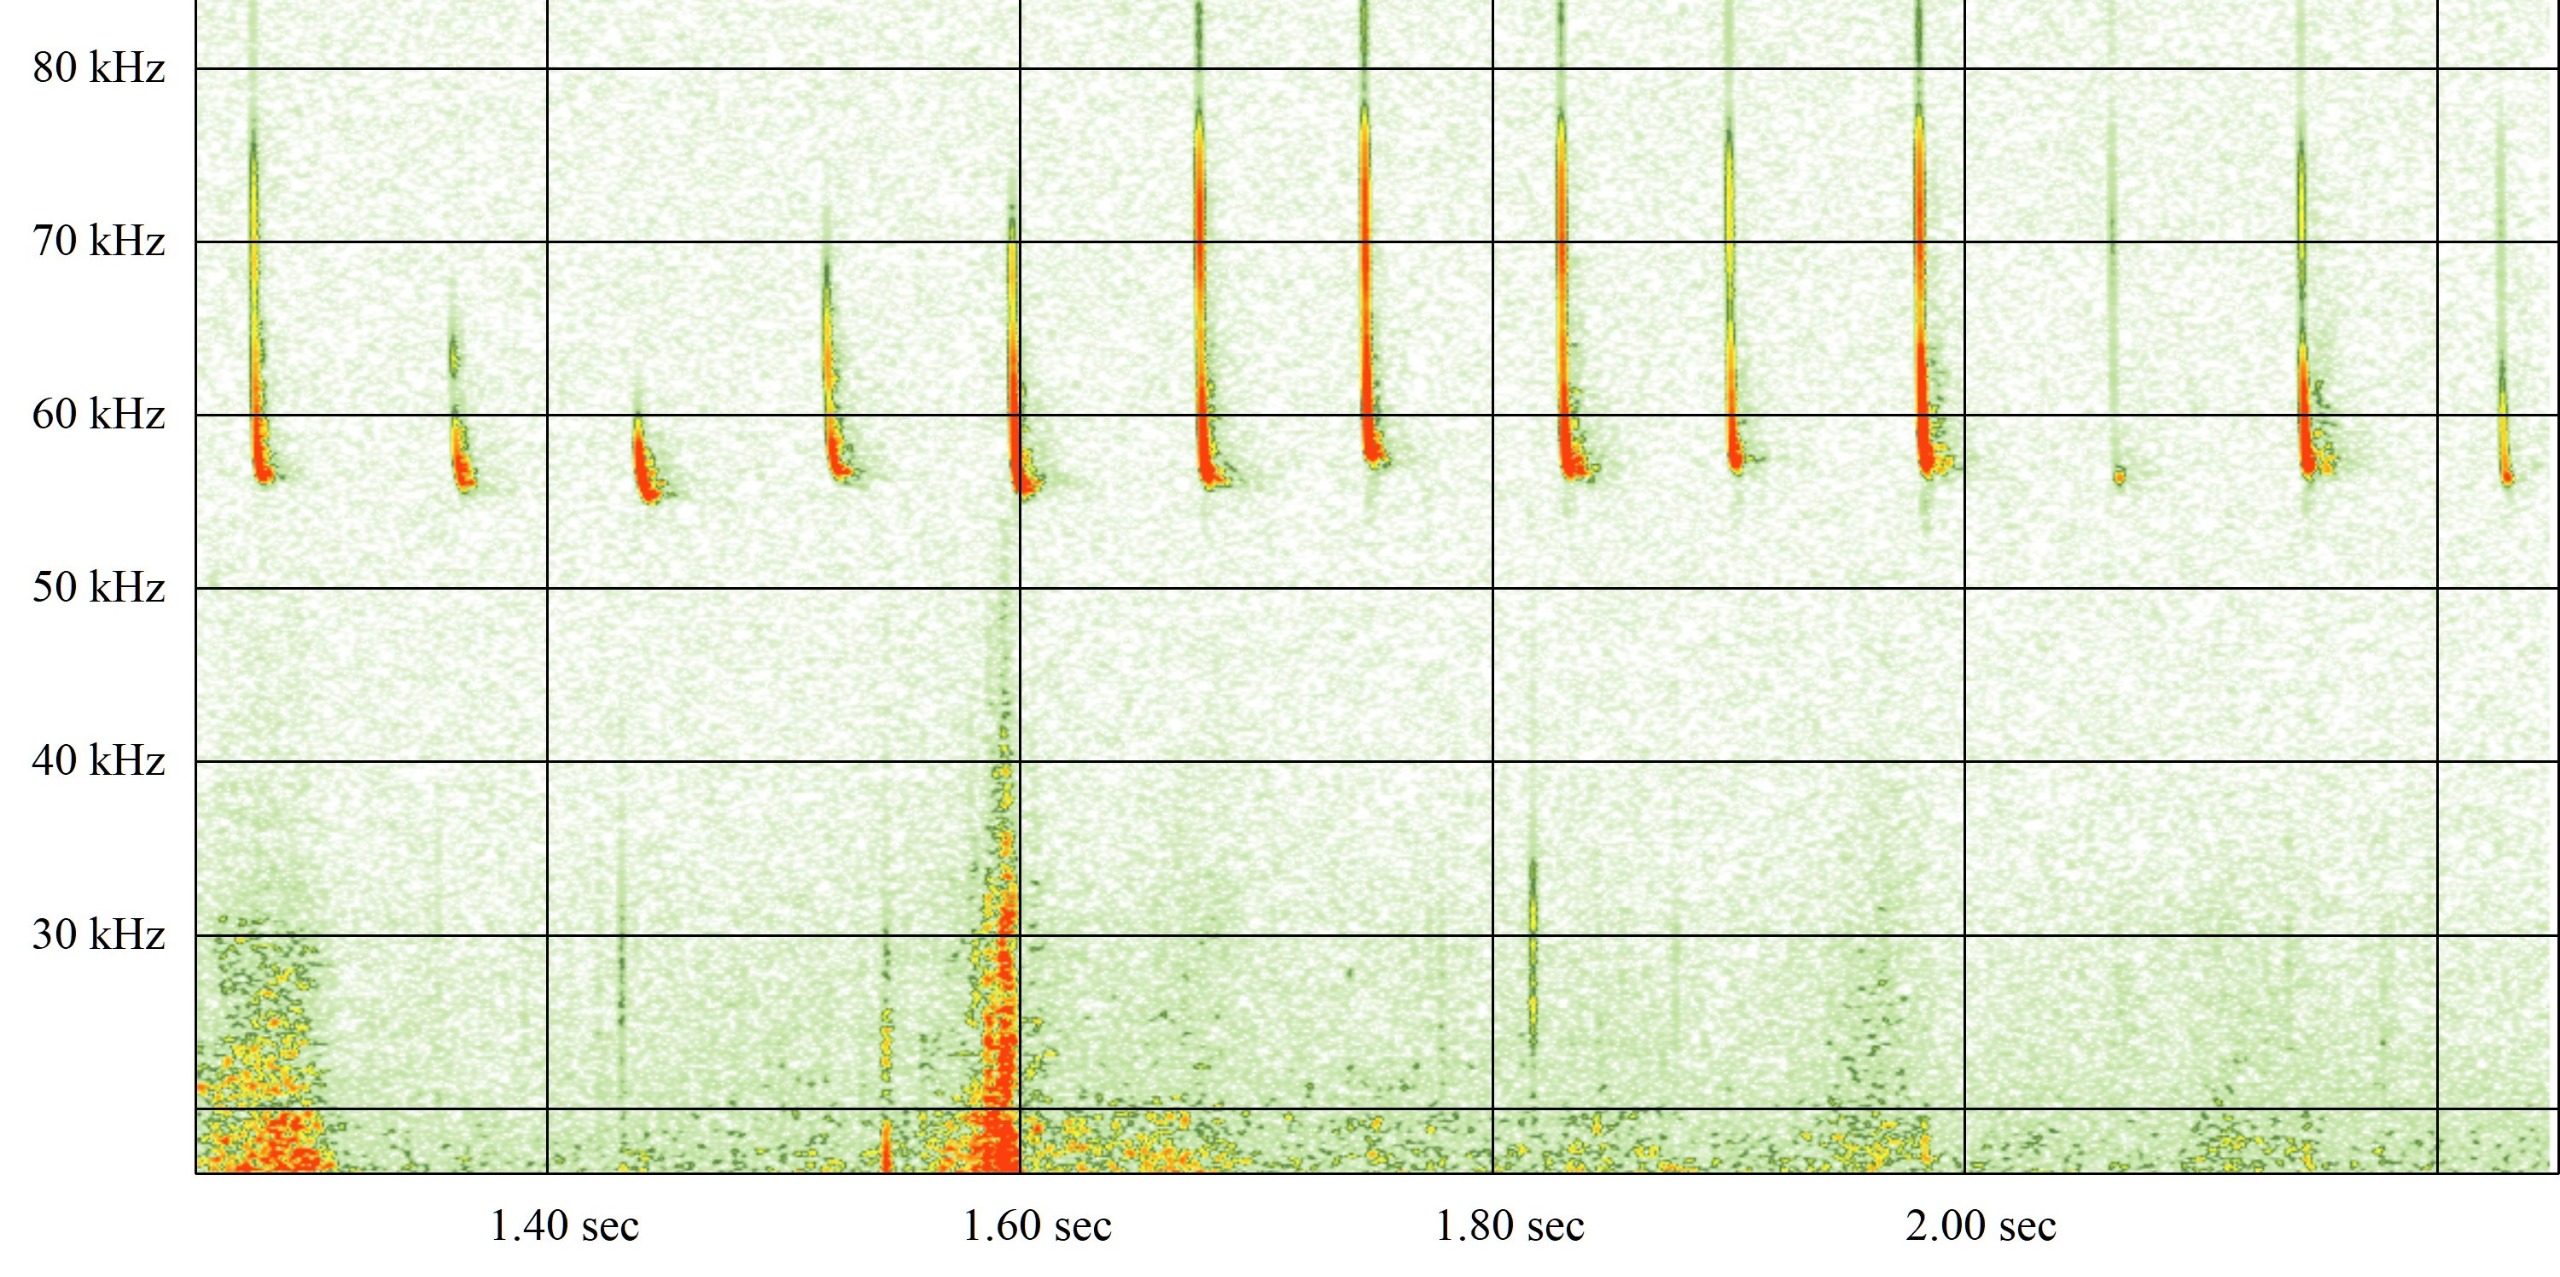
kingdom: Animalia
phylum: Chordata
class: Mammalia
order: Chiroptera
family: Vespertilionidae
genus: Pipistrellus
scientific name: Pipistrellus pygmaeus
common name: Dværgflagermus
